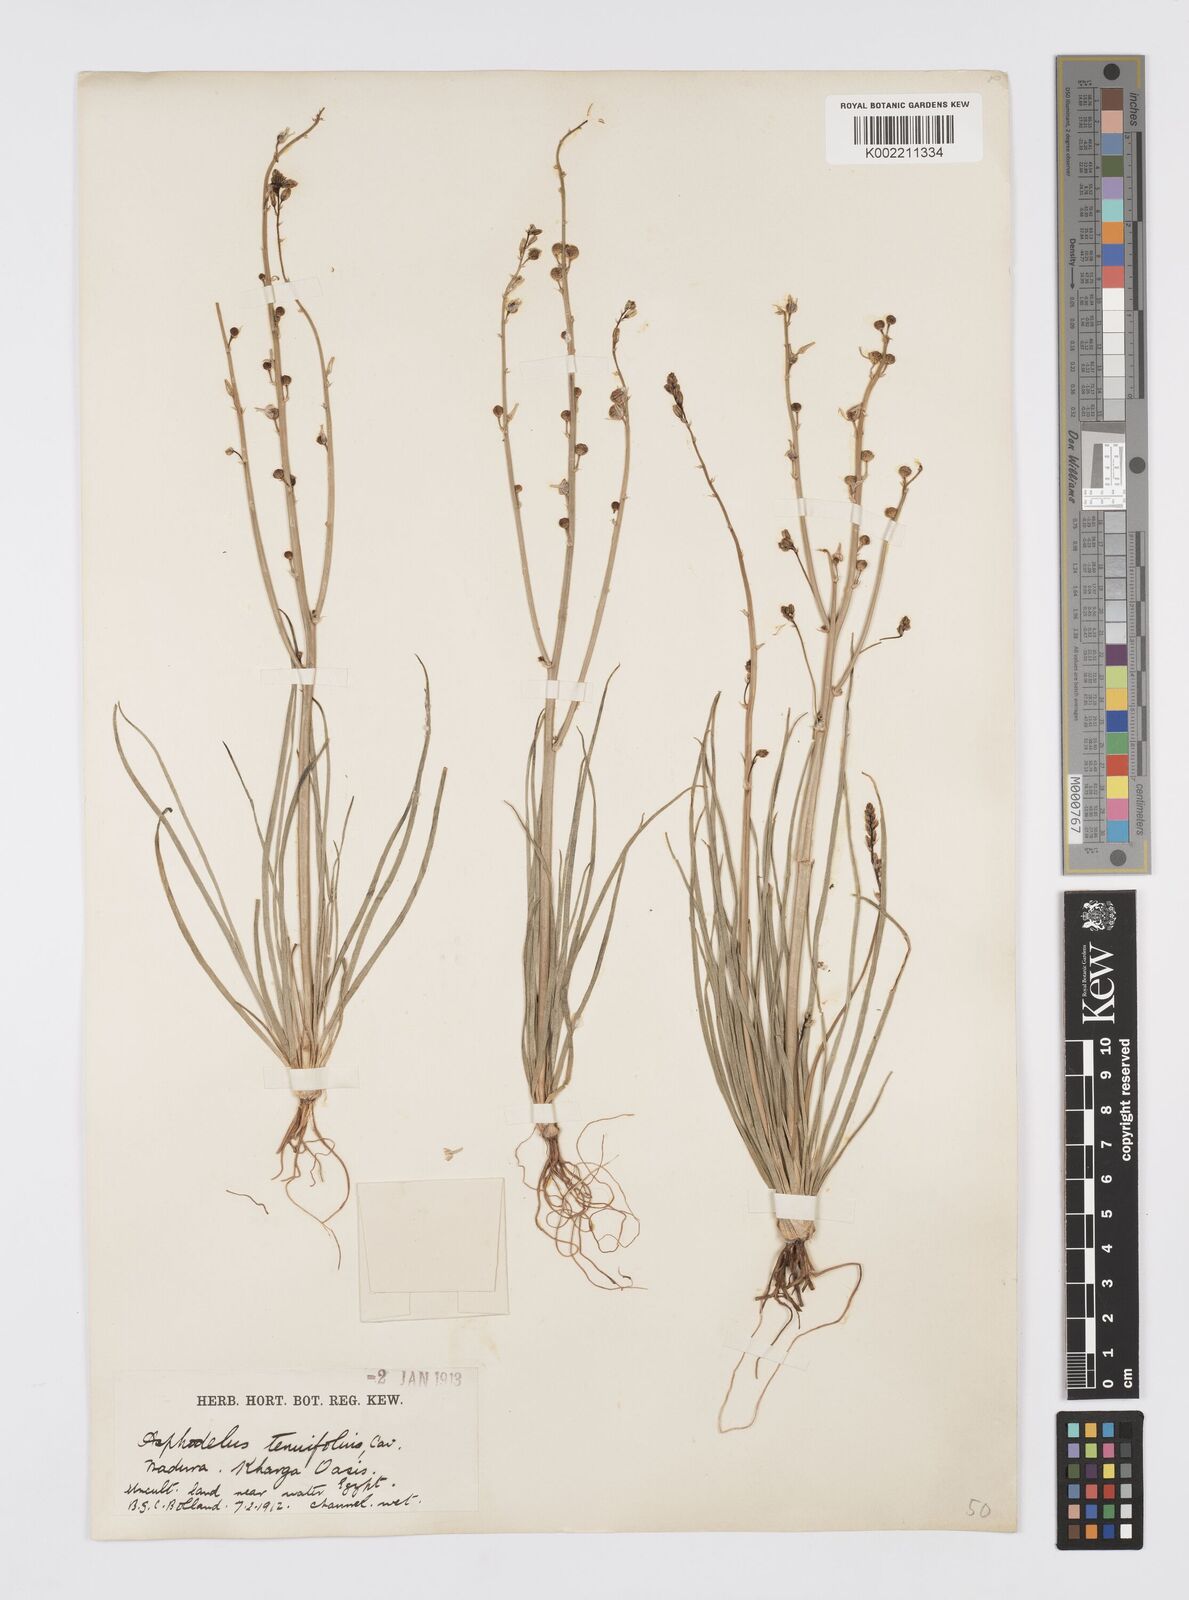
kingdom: Plantae
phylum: Tracheophyta
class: Liliopsida
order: Asparagales
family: Asphodelaceae
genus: Asphodelus
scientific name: Asphodelus tenuifolius
